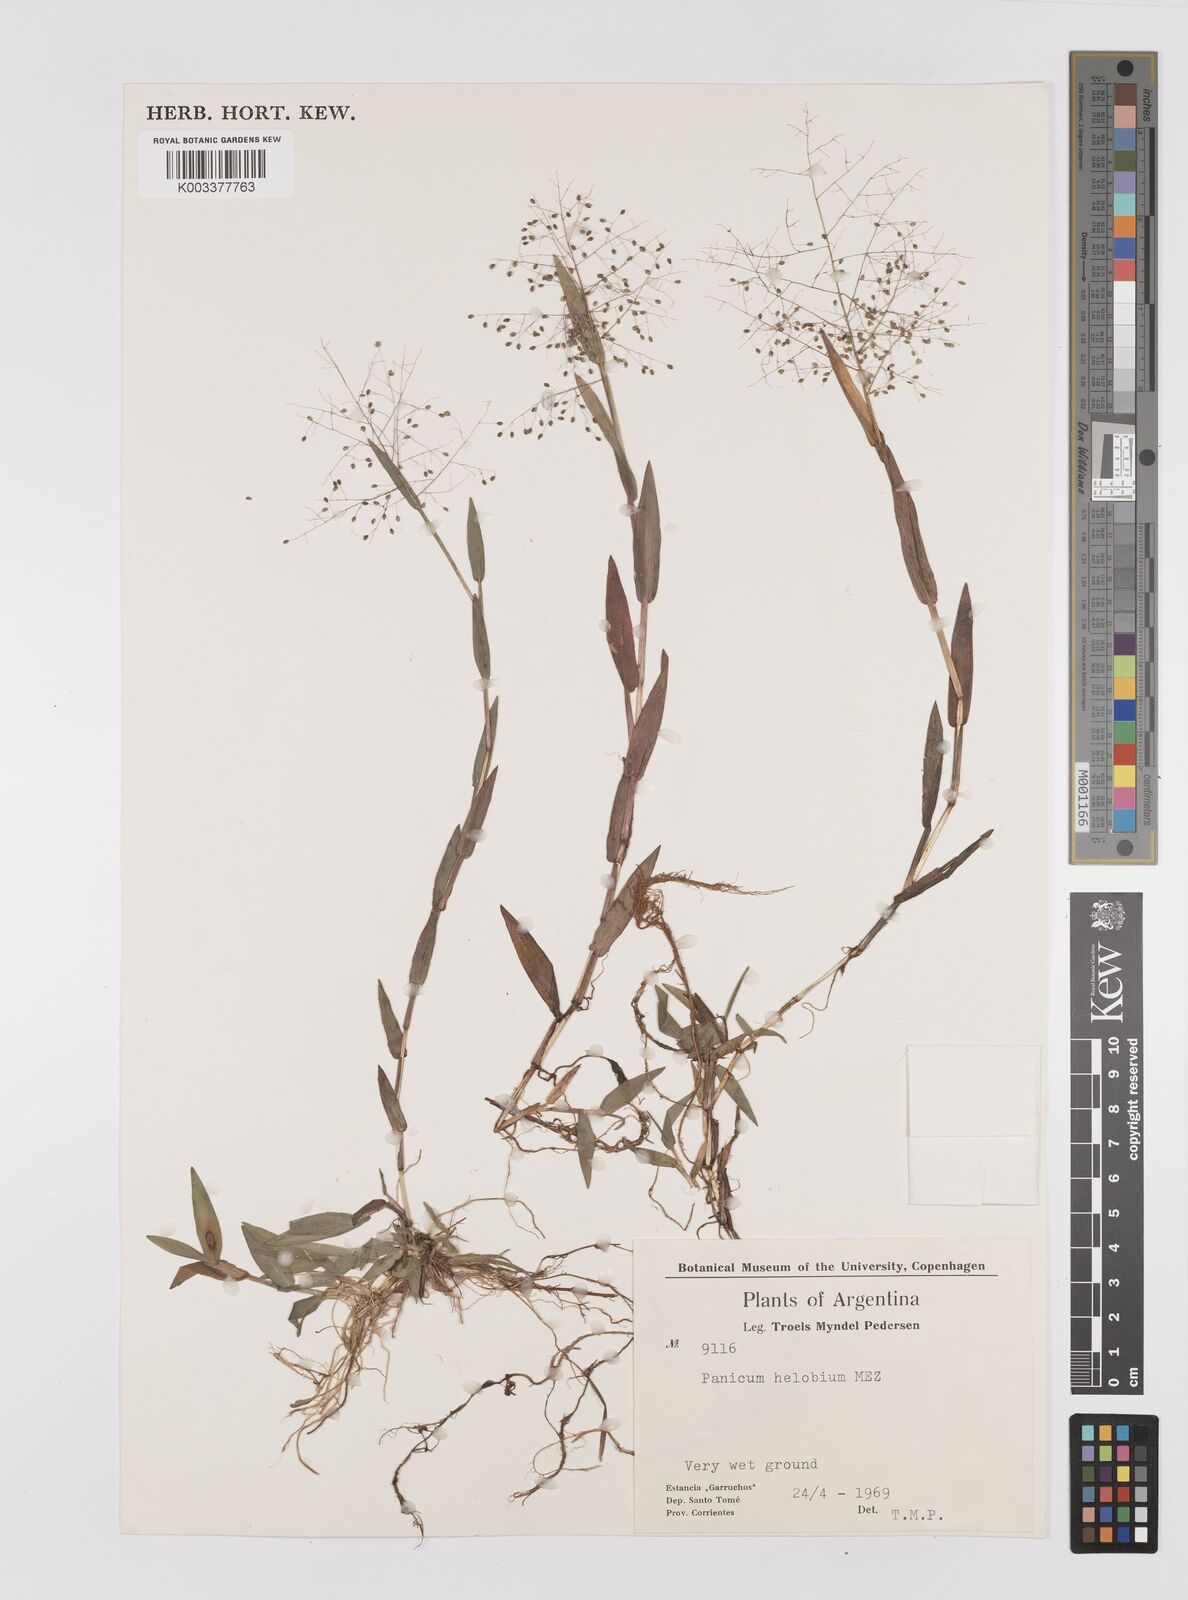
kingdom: Plantae
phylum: Tracheophyta
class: Liliopsida
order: Poales
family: Poaceae
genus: Trichanthecium
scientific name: Trichanthecium schwackeanum
